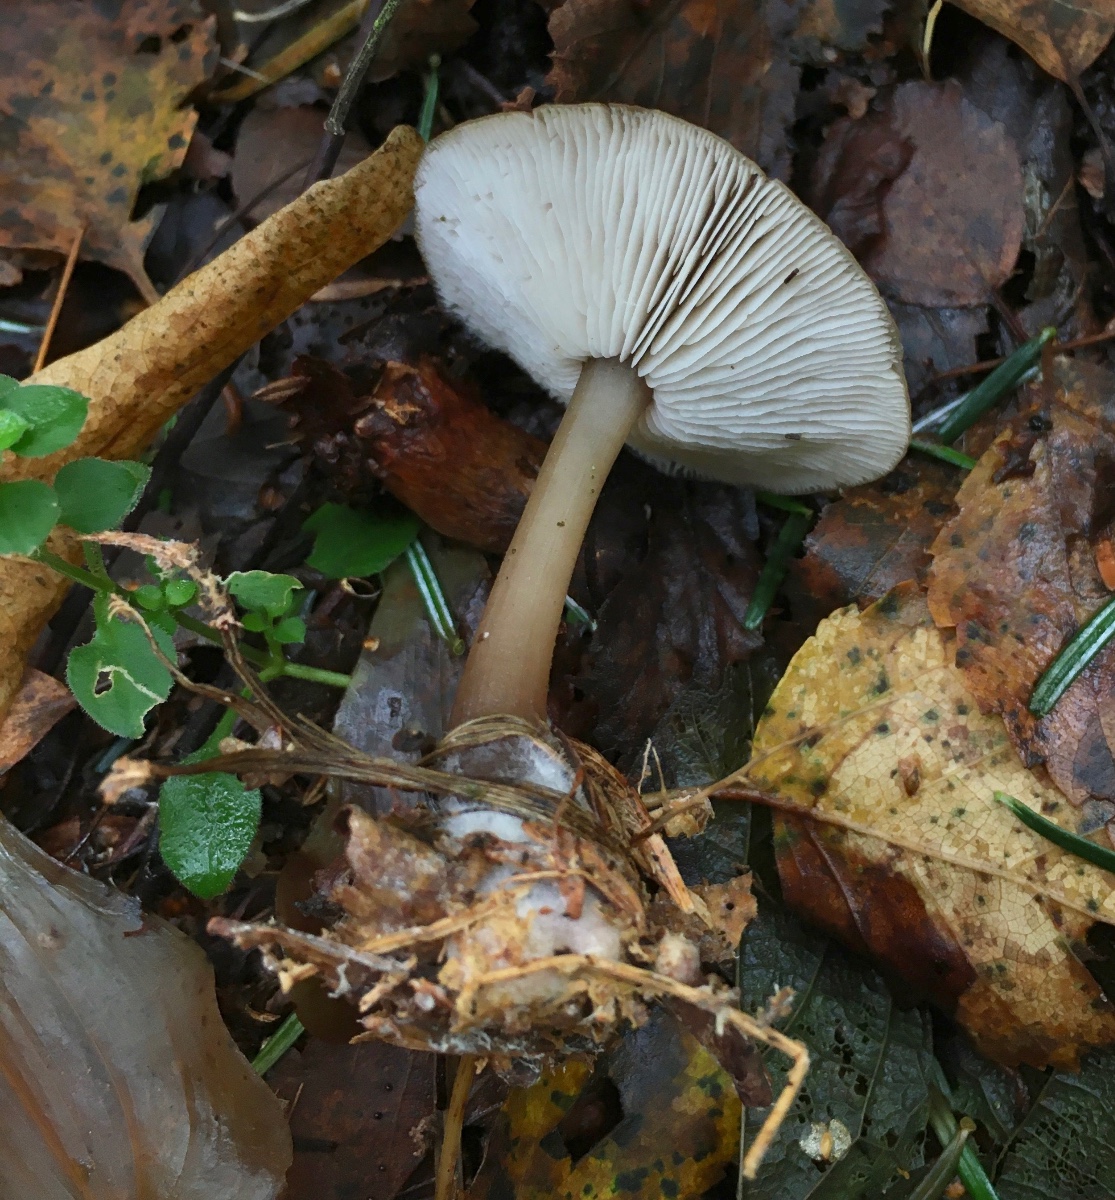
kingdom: Fungi
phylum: Basidiomycota
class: Agaricomycetes
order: Agaricales
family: Omphalotaceae
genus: Rhodocollybia
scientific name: Rhodocollybia asema
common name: horngrå fladhat
